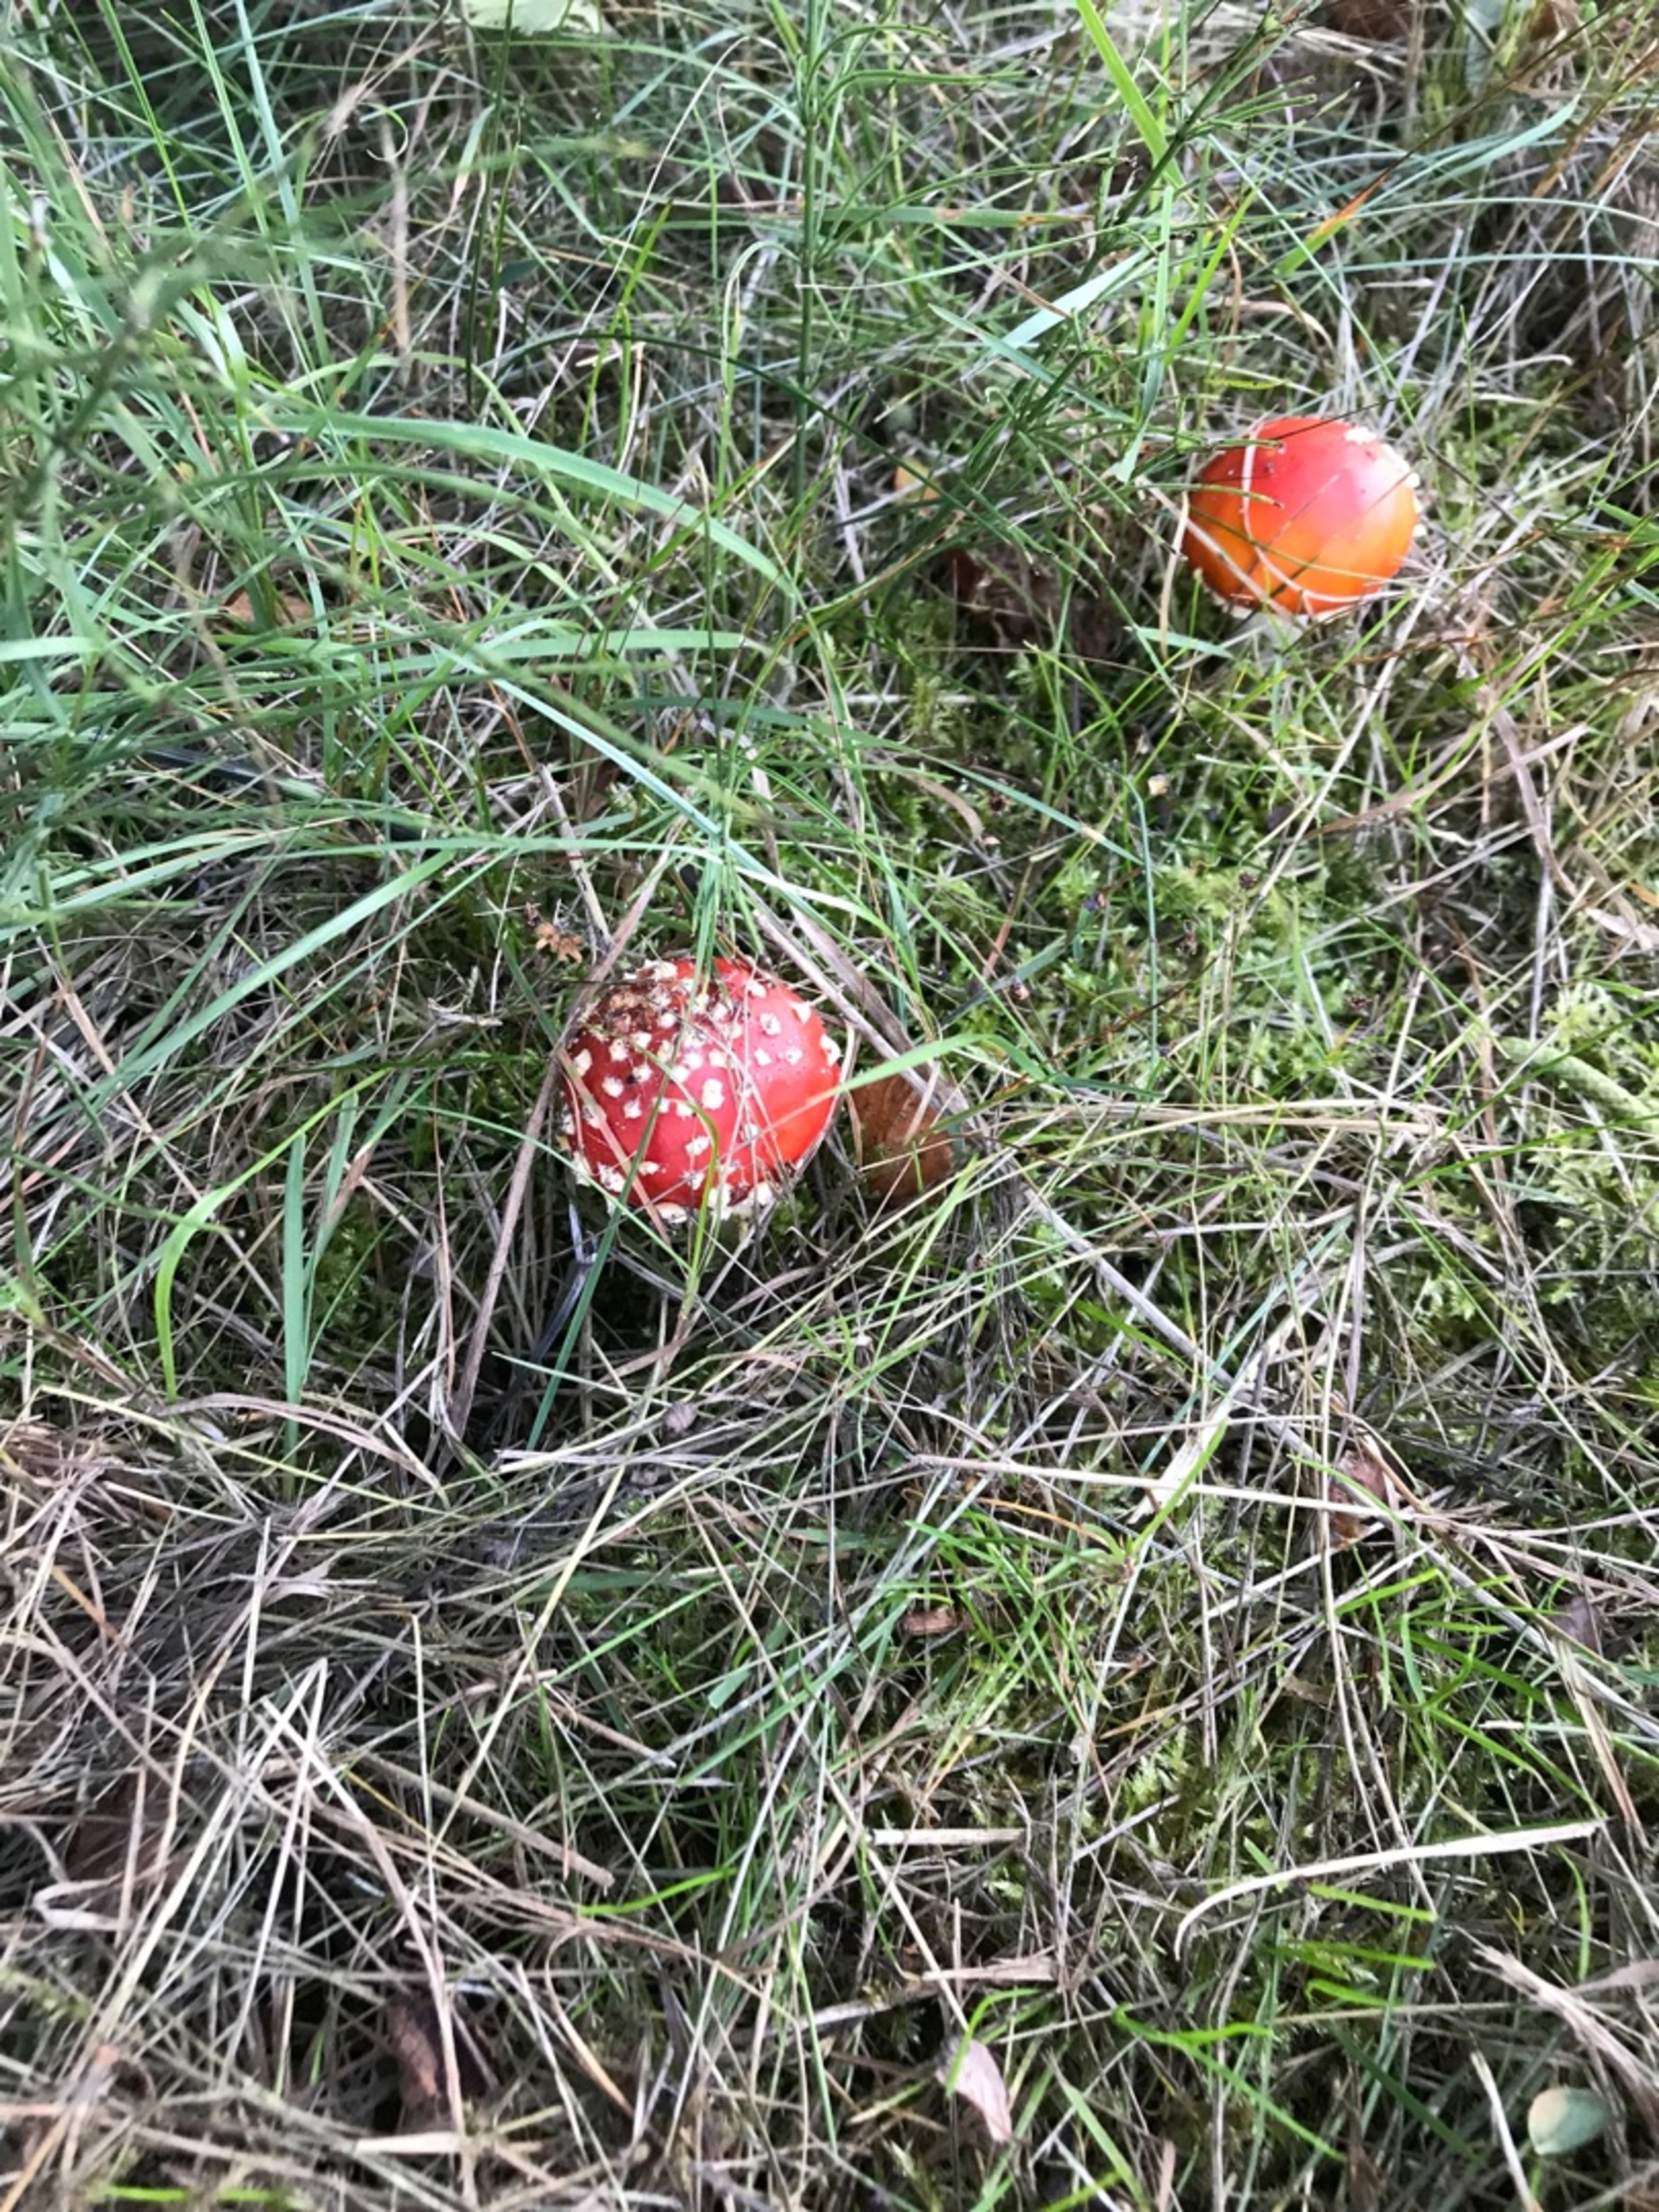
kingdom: Fungi
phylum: Basidiomycota
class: Agaricomycetes
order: Agaricales
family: Amanitaceae
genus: Amanita
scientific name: Amanita muscaria
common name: Rød fluesvamp
